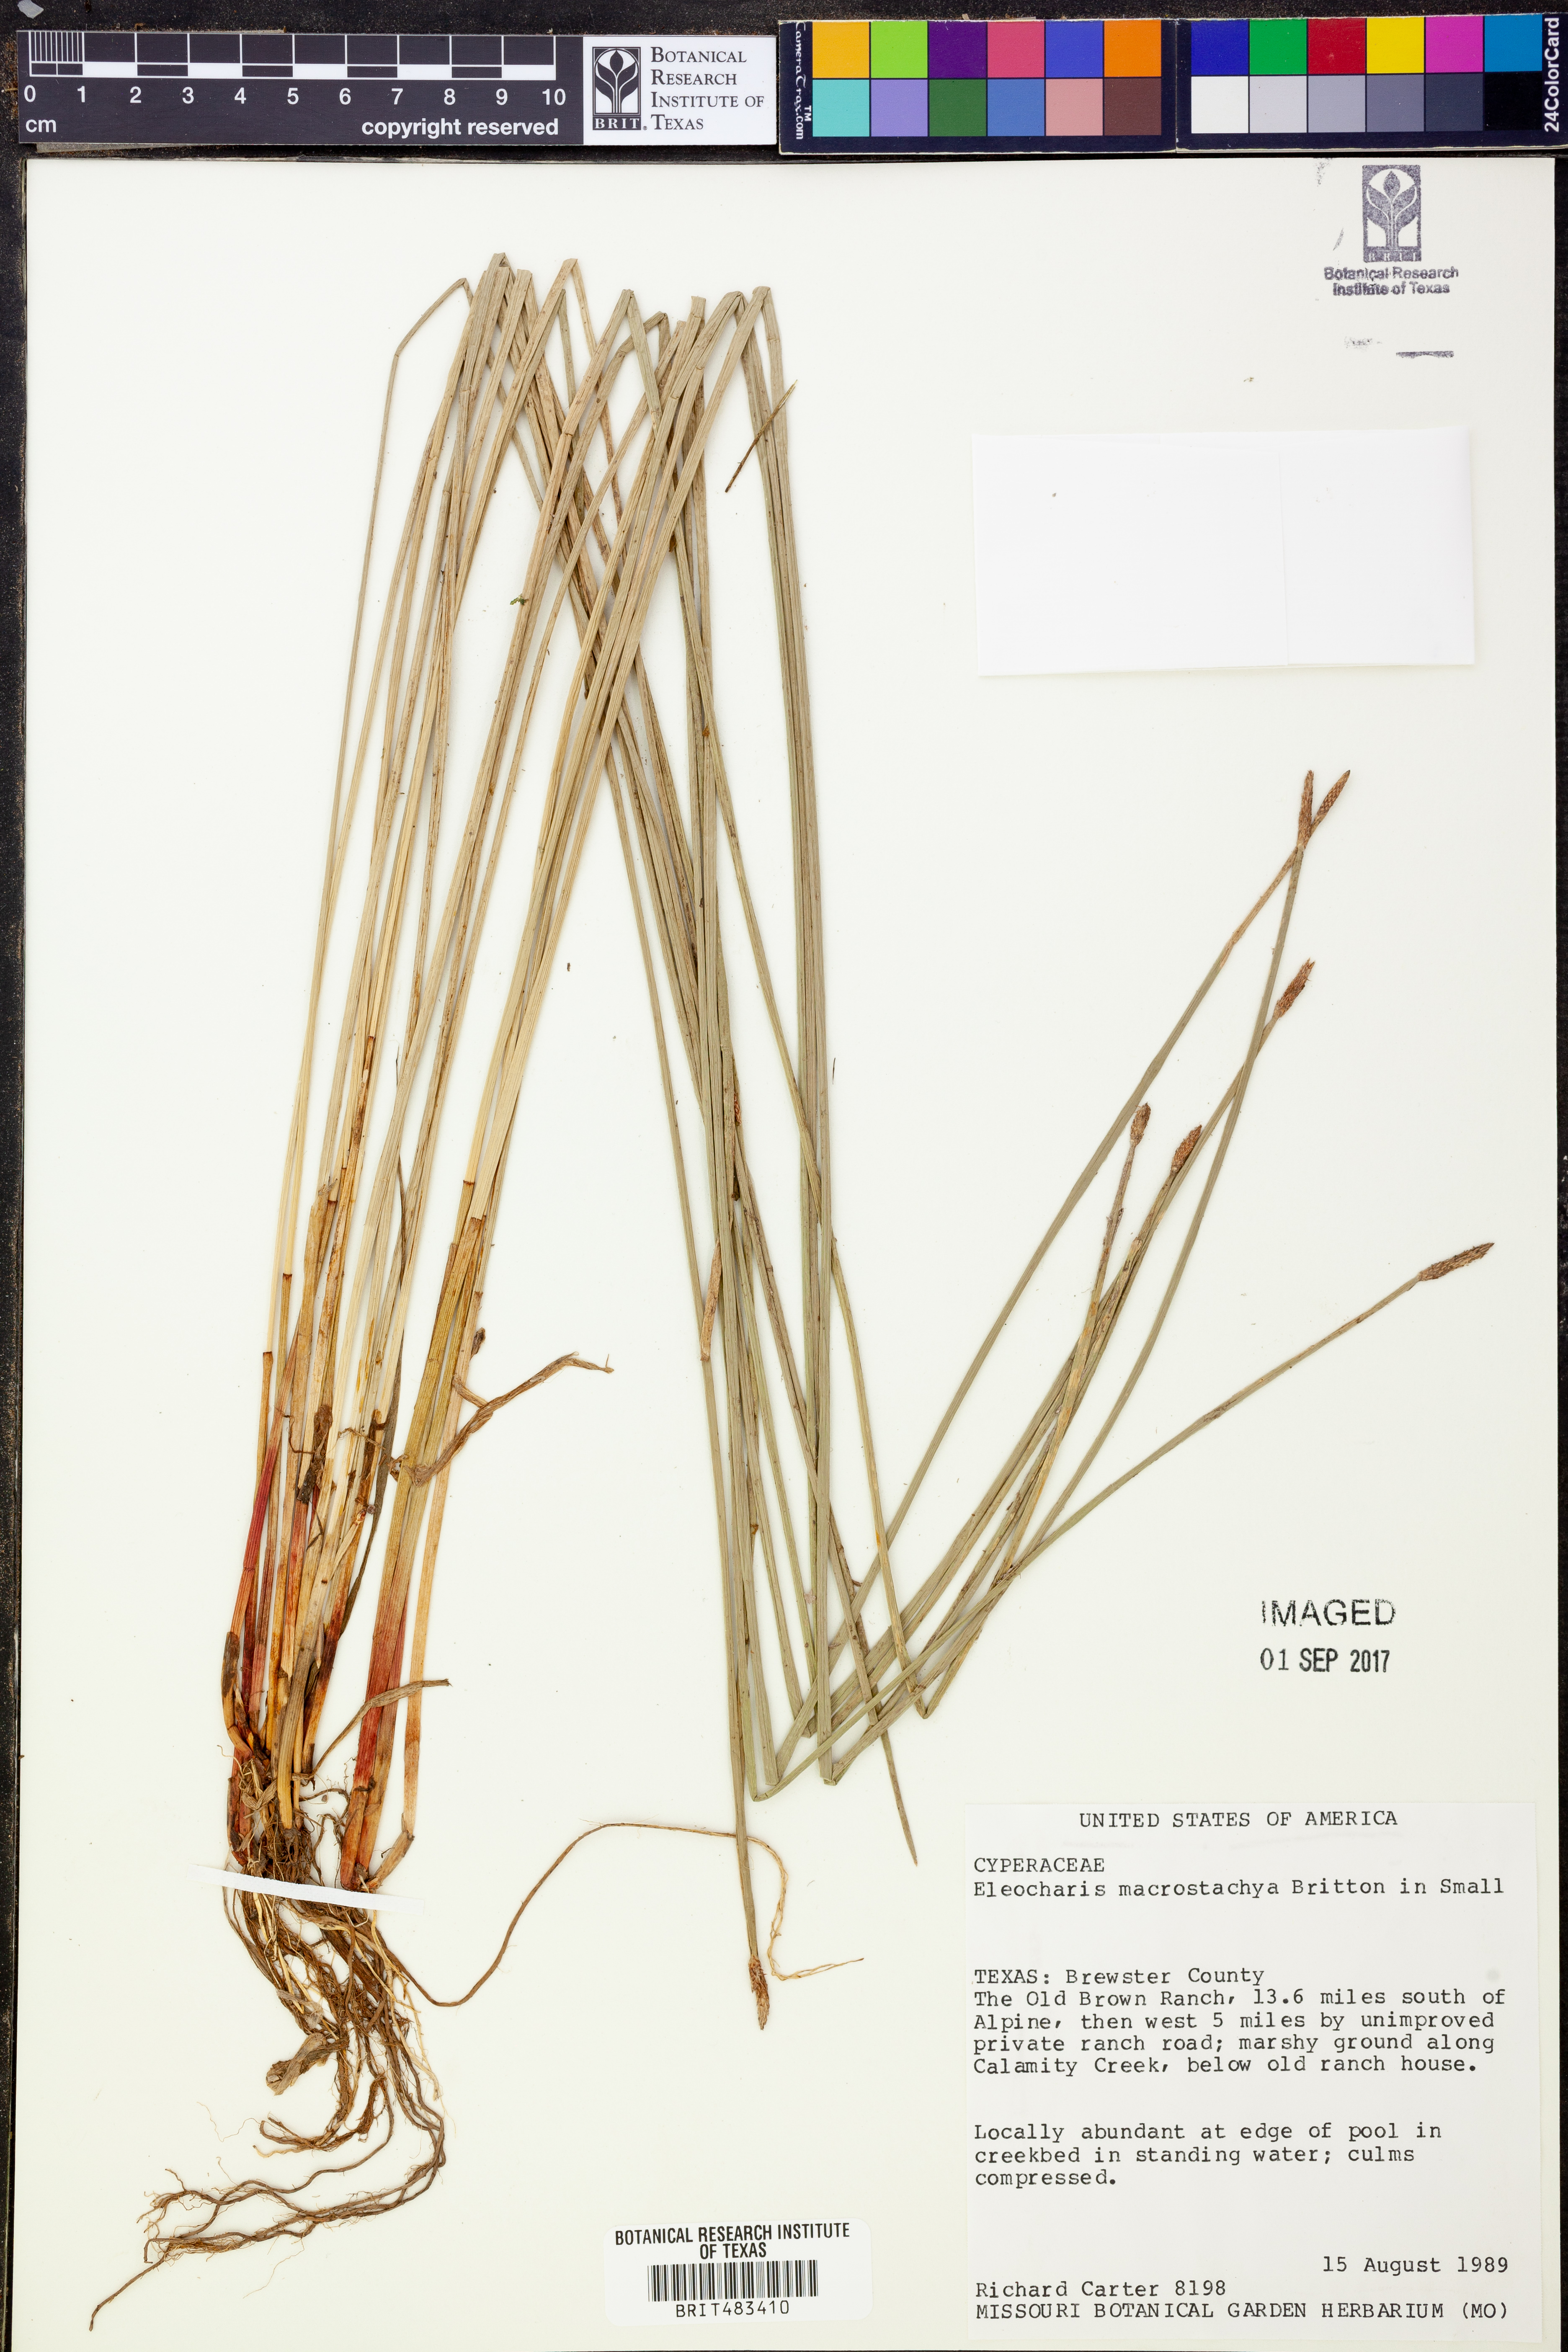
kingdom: Plantae
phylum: Tracheophyta
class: Liliopsida
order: Poales
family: Cyperaceae
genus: Eleocharis
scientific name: Eleocharis macrostachya
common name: Pale spikerush
